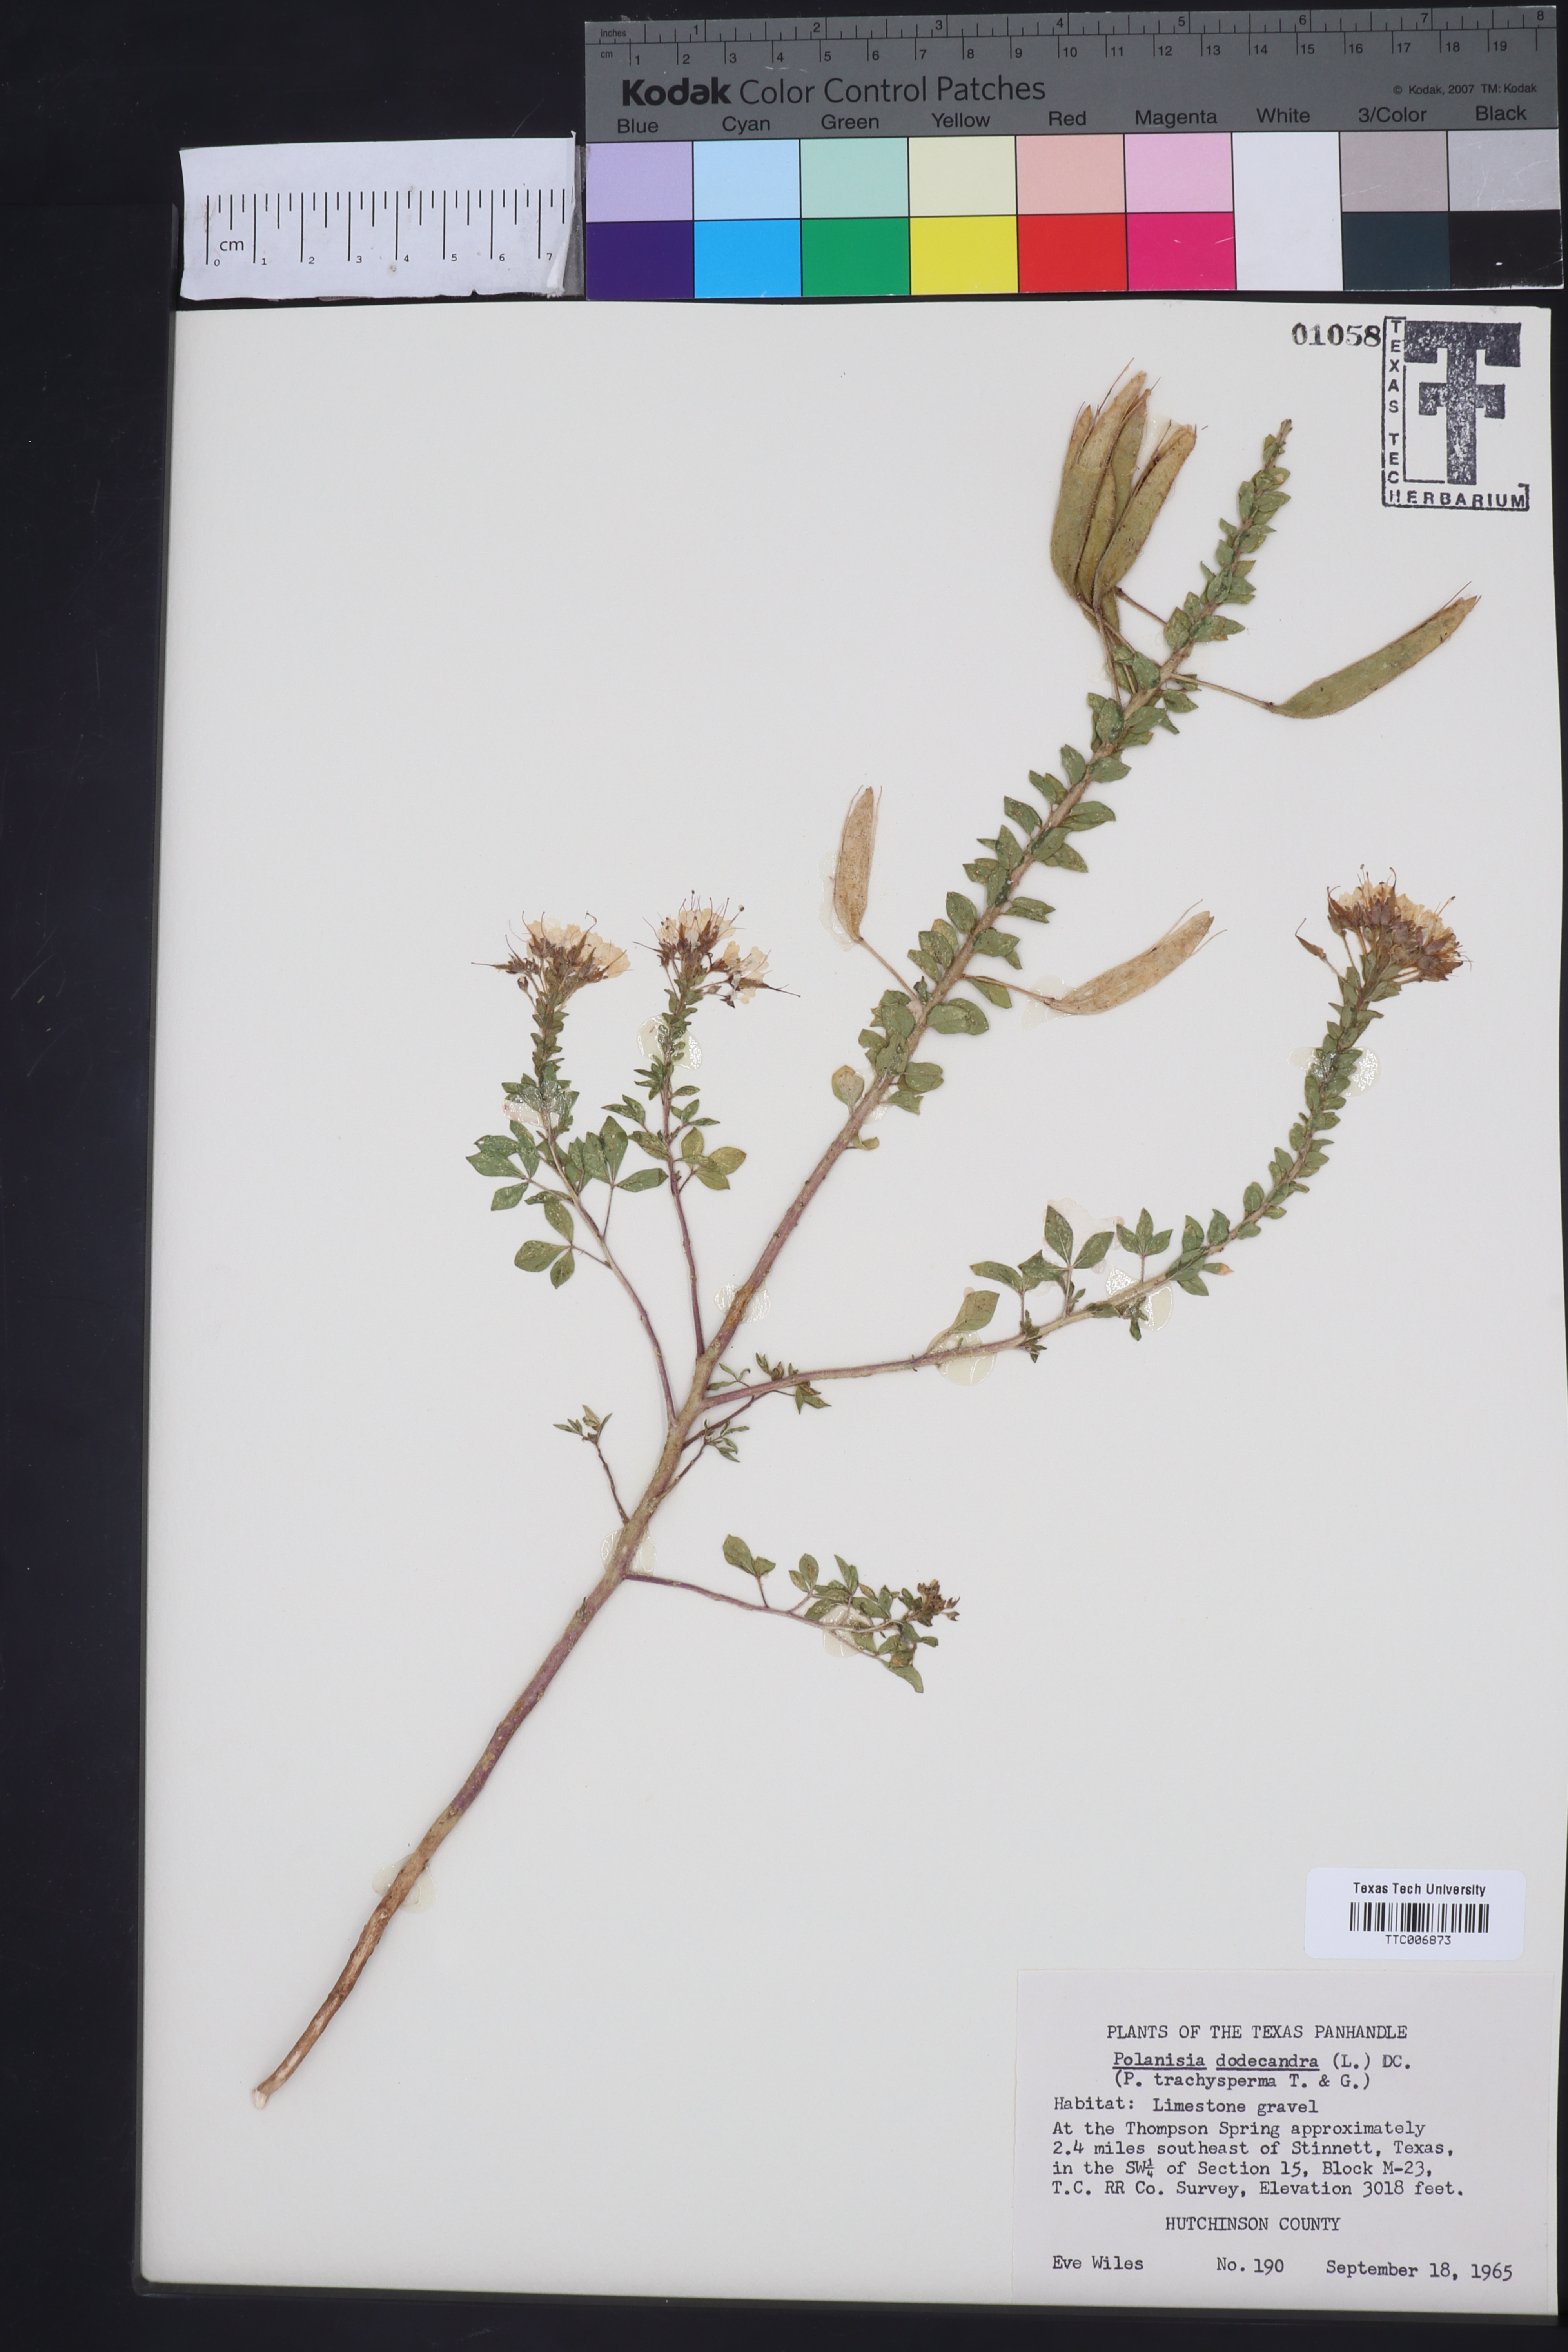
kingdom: Plantae
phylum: Tracheophyta
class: Magnoliopsida
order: Brassicales
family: Cleomaceae
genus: Polanisia
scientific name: Polanisia trachysperma
